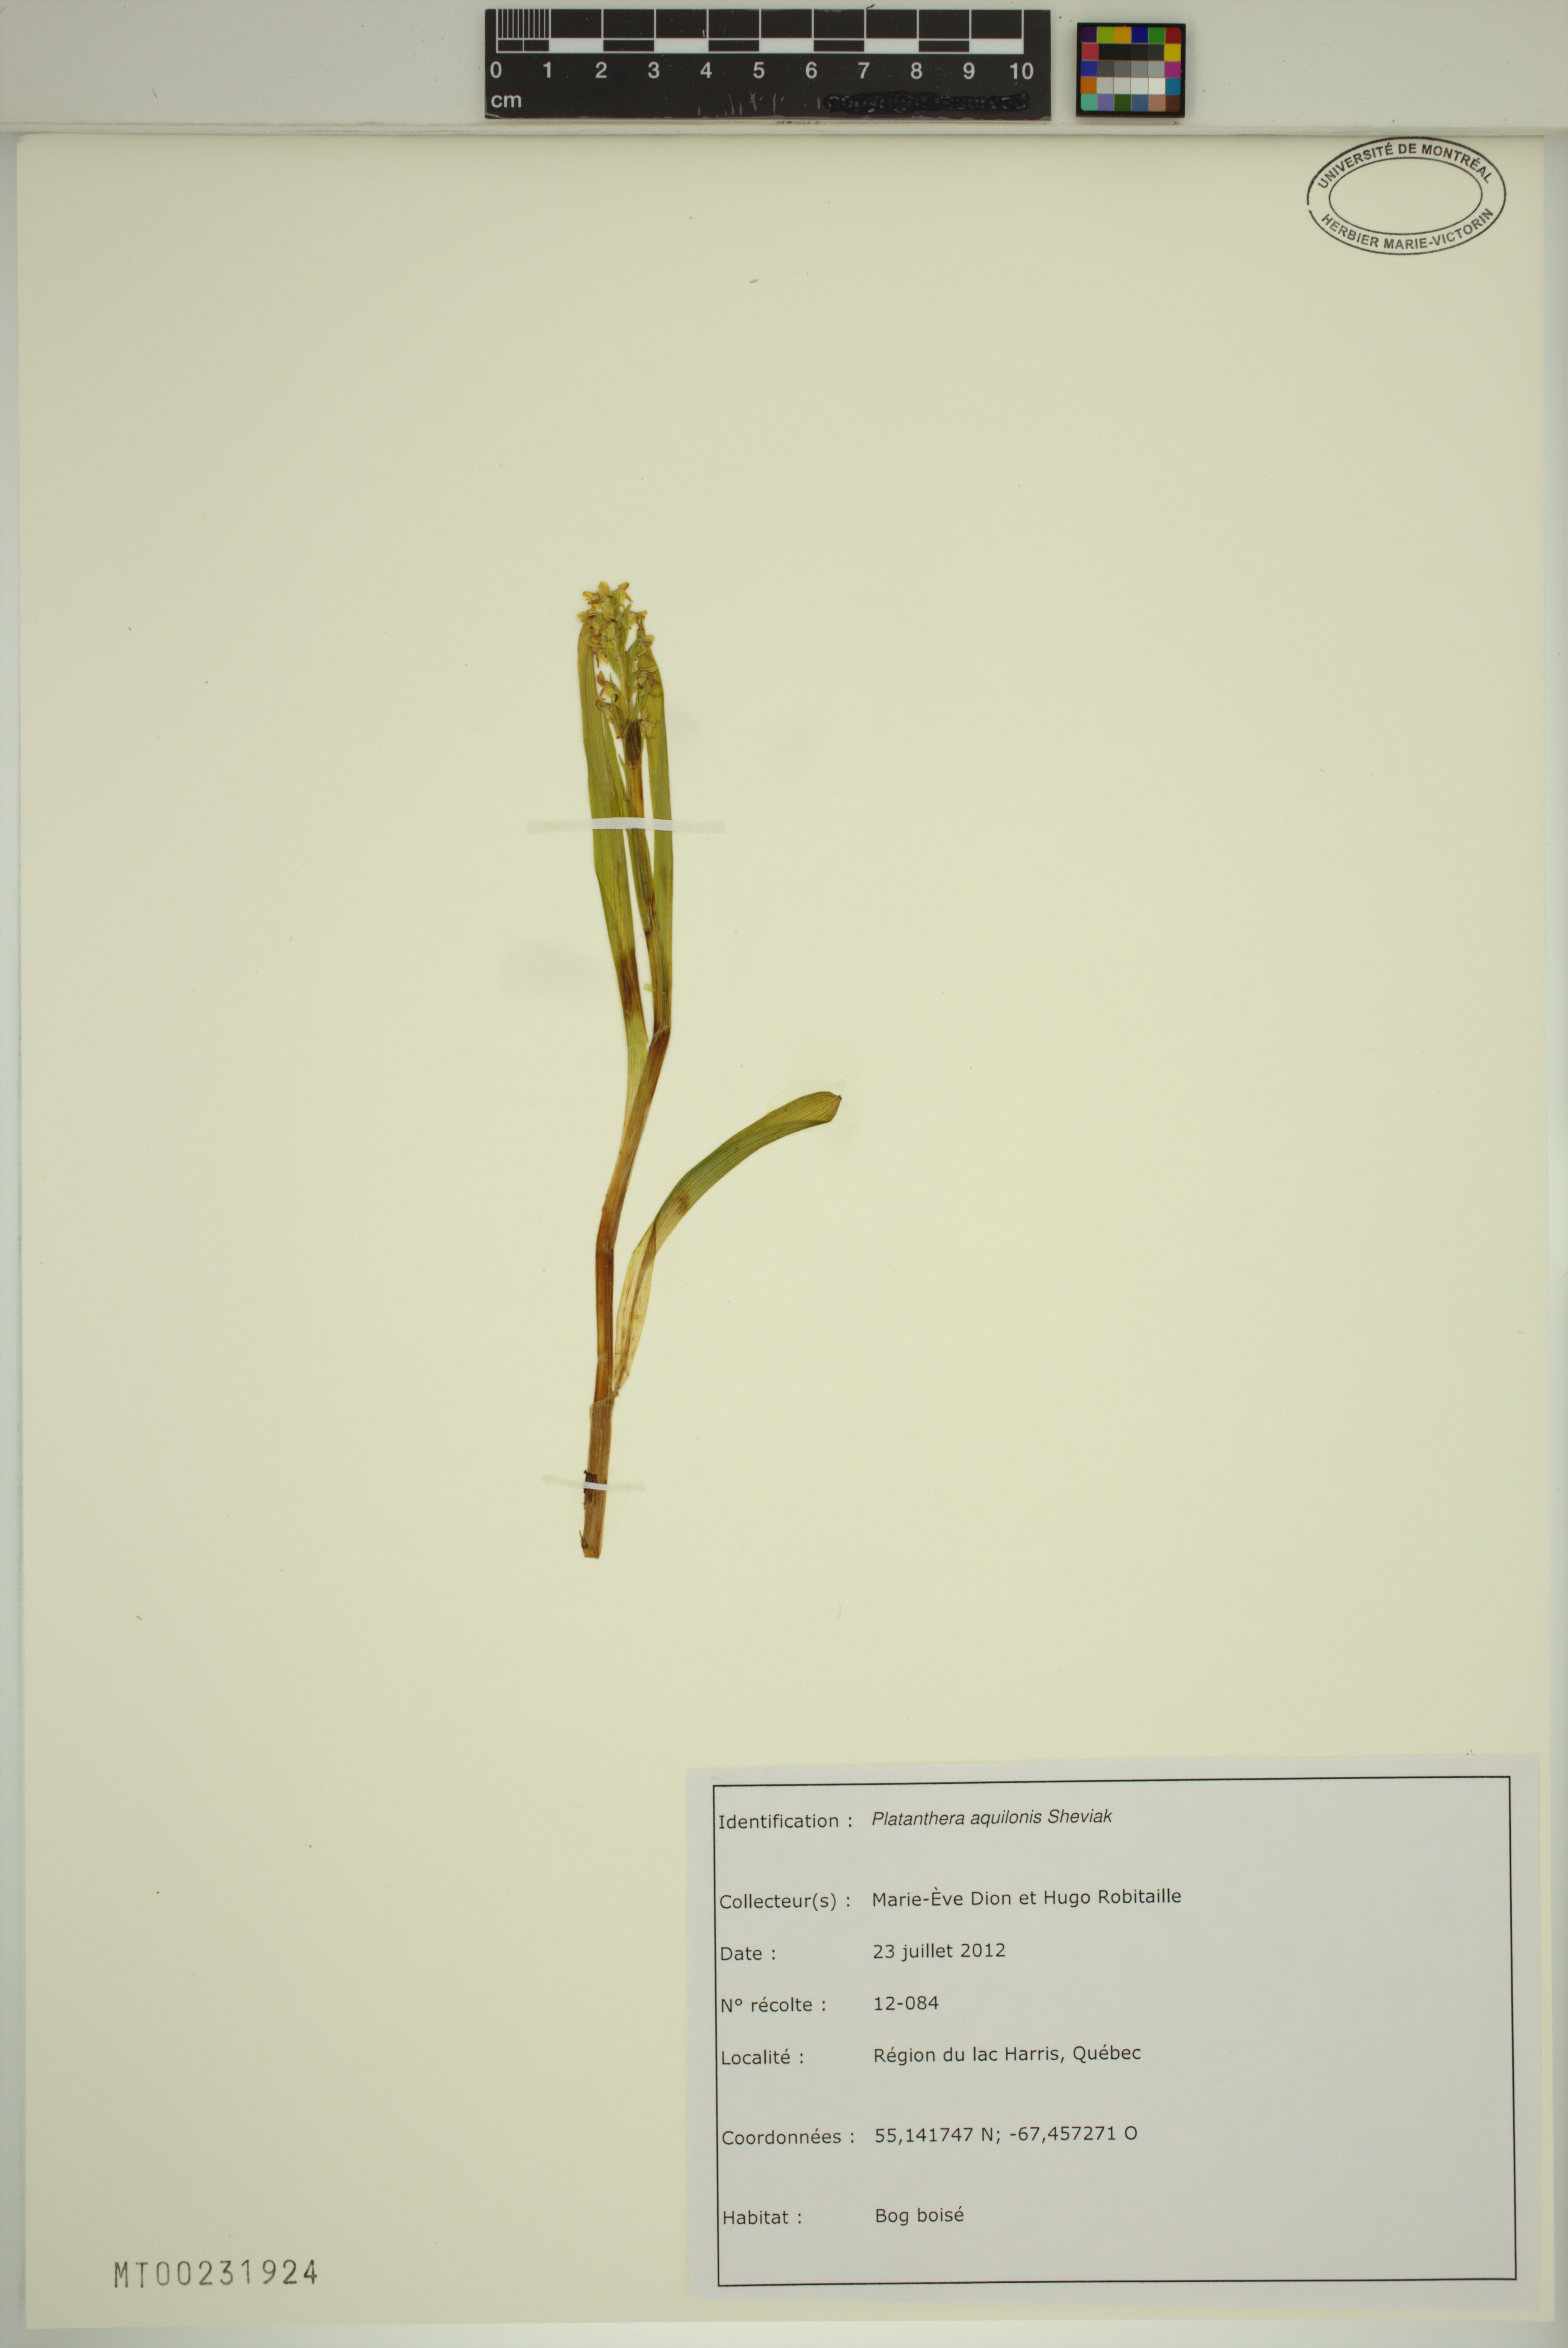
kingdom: Plantae
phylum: Tracheophyta
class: Liliopsida
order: Asparagales
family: Orchidaceae
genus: Platanthera
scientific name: Platanthera aquilonis
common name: Northern green orchid
